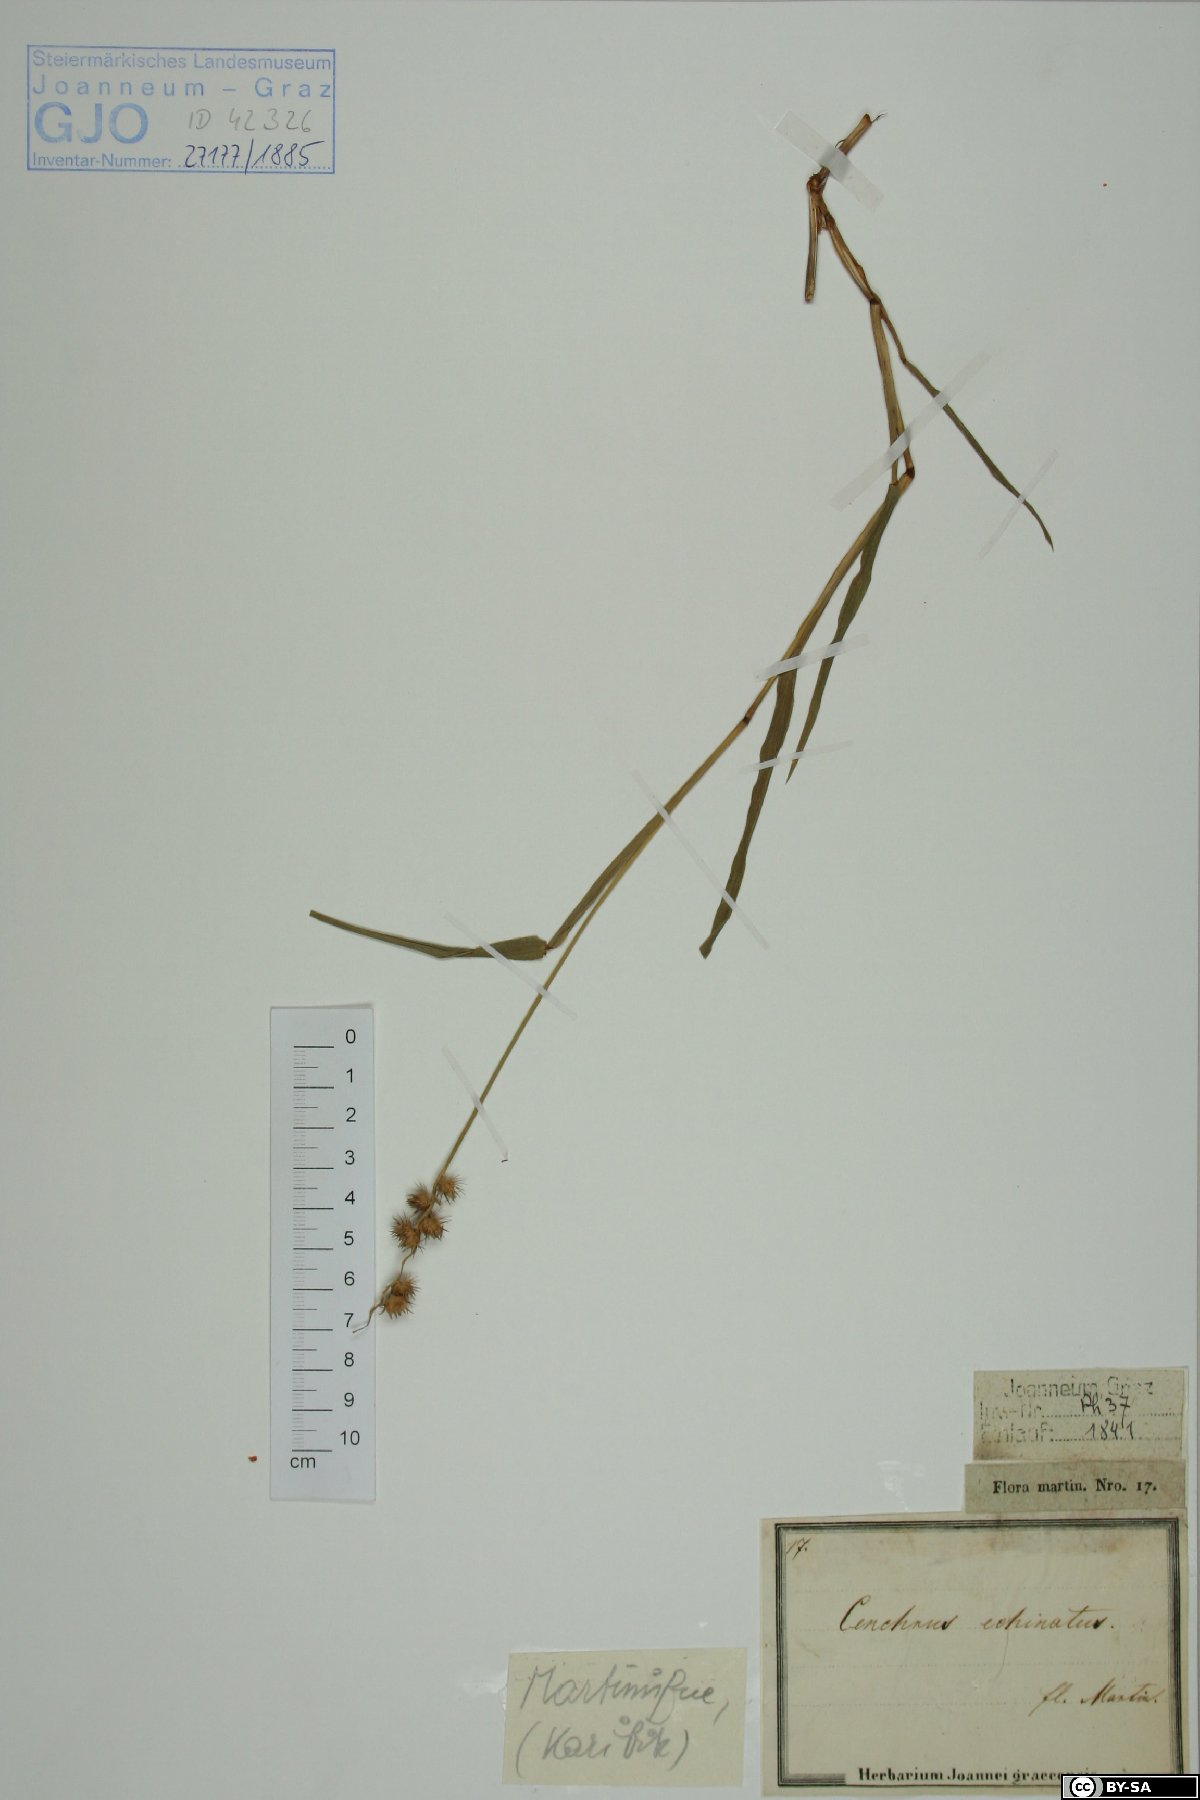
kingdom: Plantae
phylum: Tracheophyta
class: Liliopsida
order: Poales
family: Poaceae
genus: Cenchrus
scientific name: Cenchrus echinatus
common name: Southern sandbur
